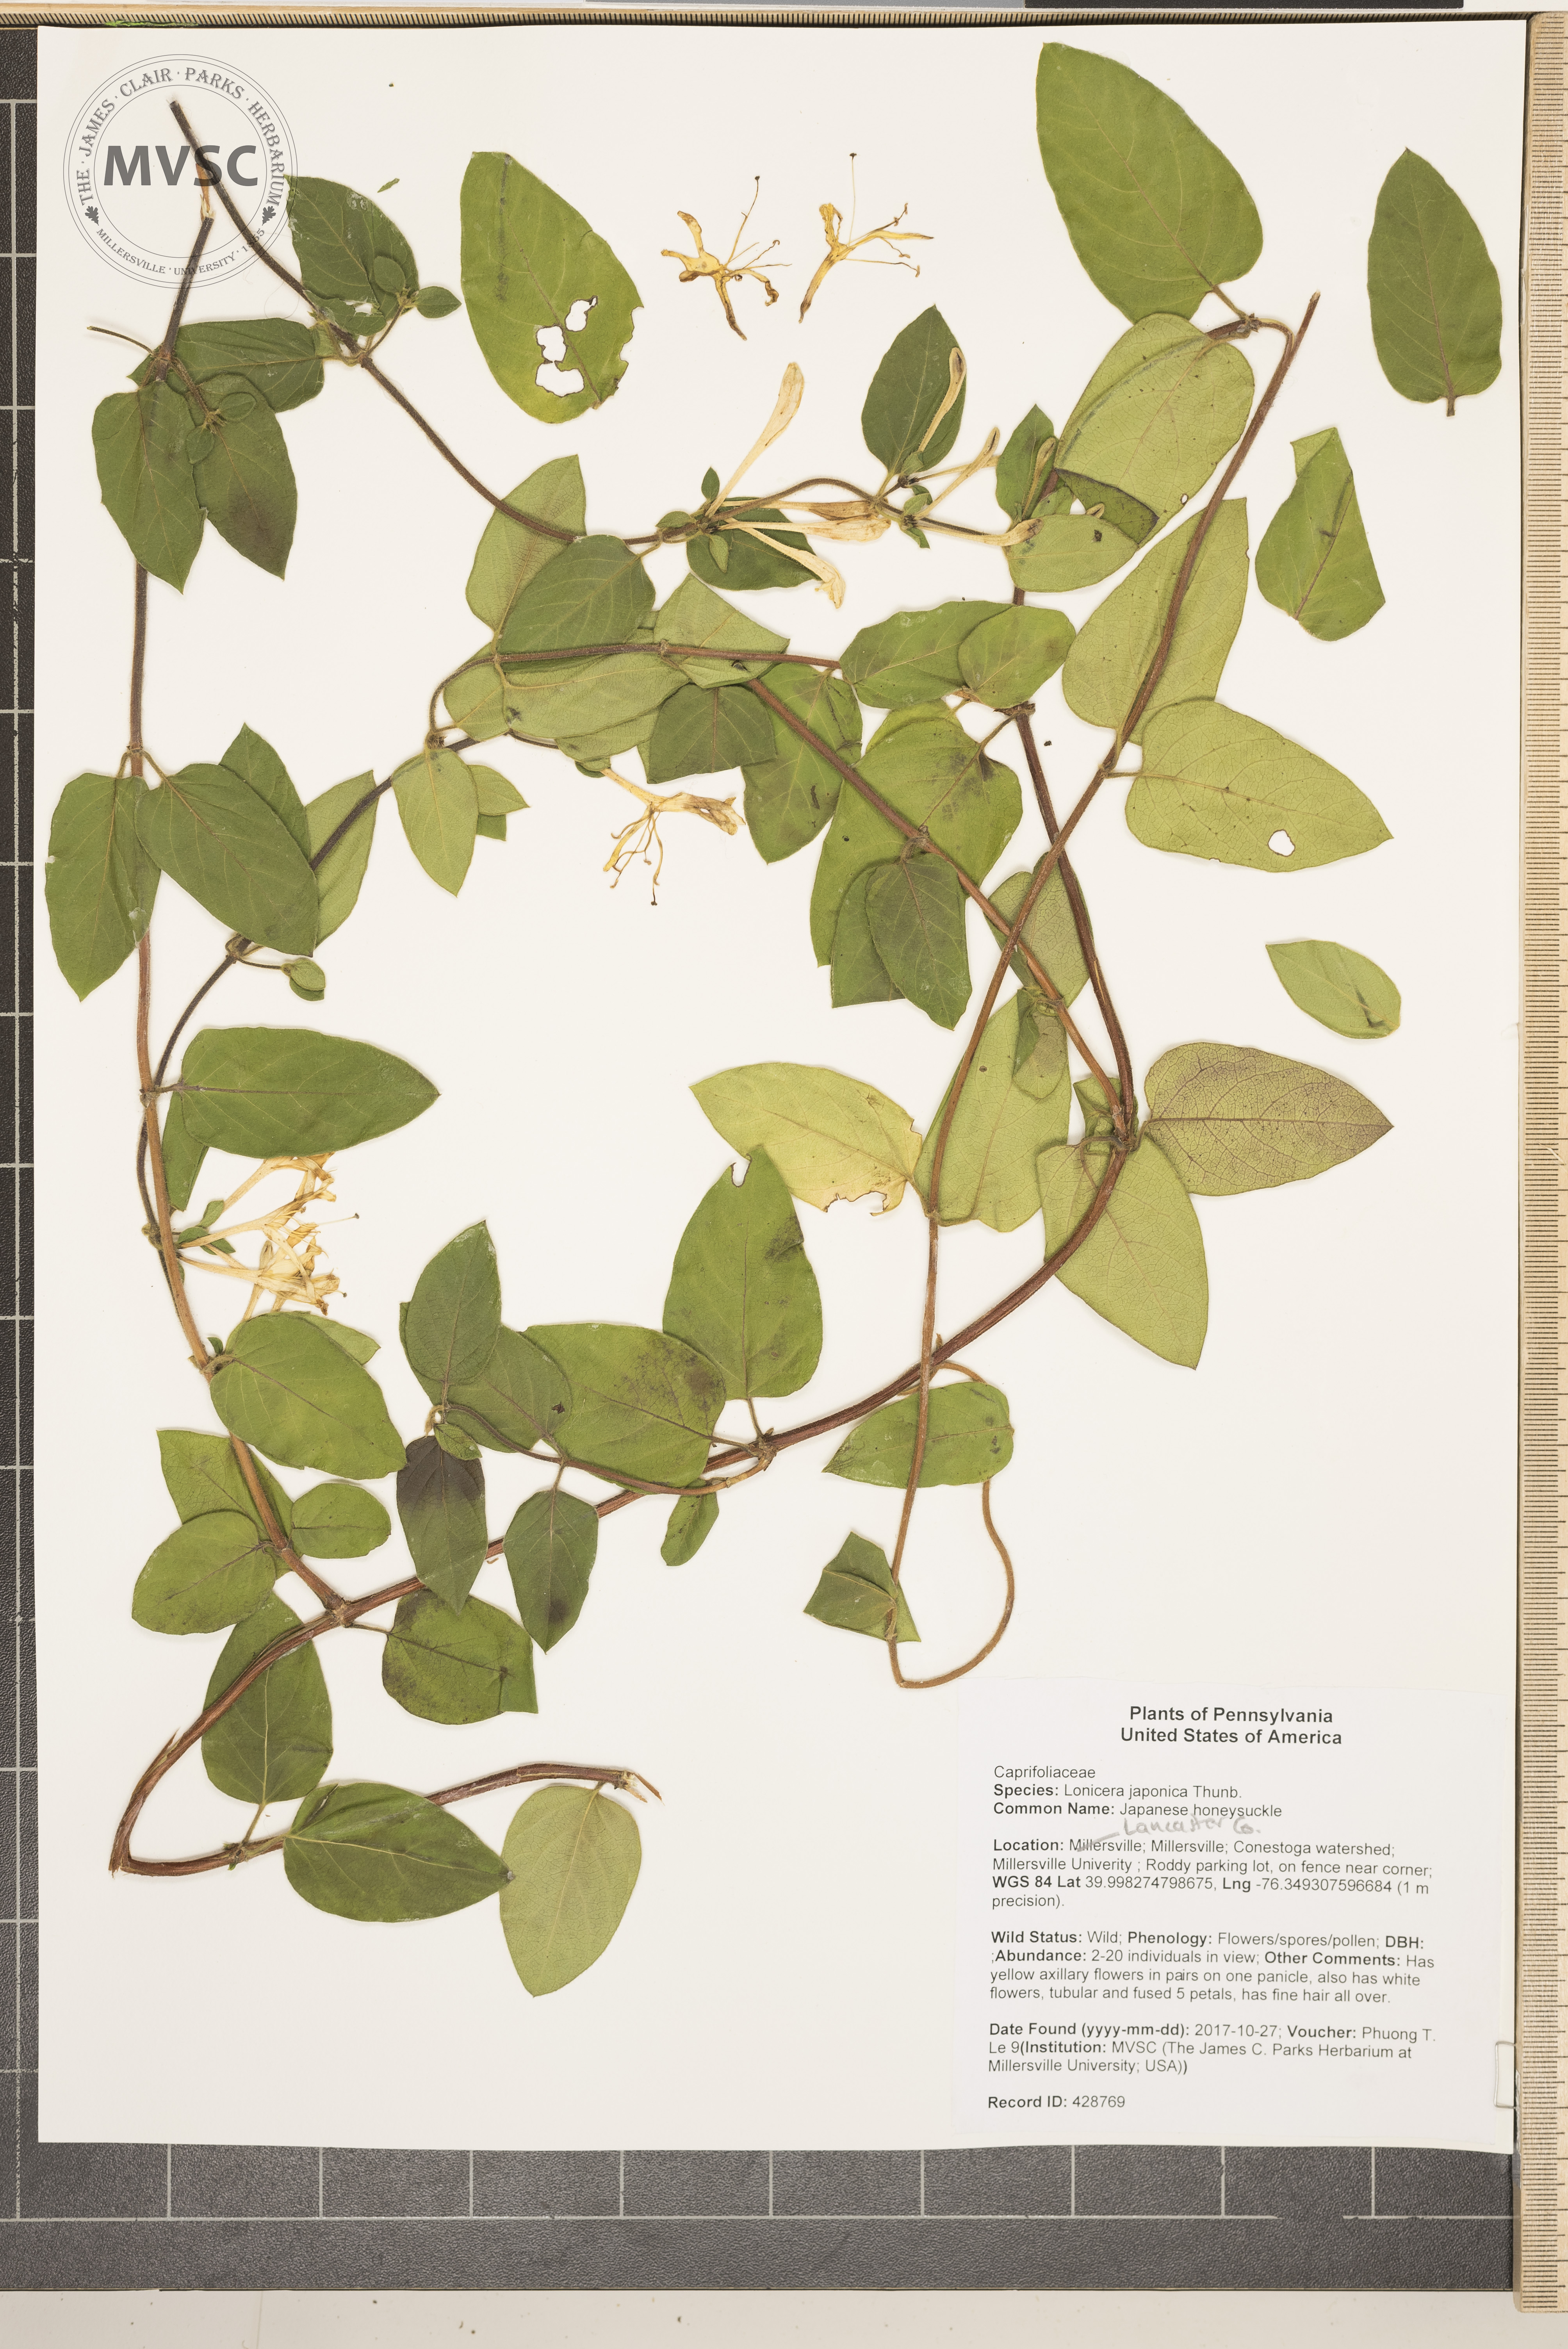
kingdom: Plantae
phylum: Tracheophyta
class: Magnoliopsida
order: Dipsacales
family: Caprifoliaceae
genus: Lonicera
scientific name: Lonicera japonica
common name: Japanese honeysuckle
